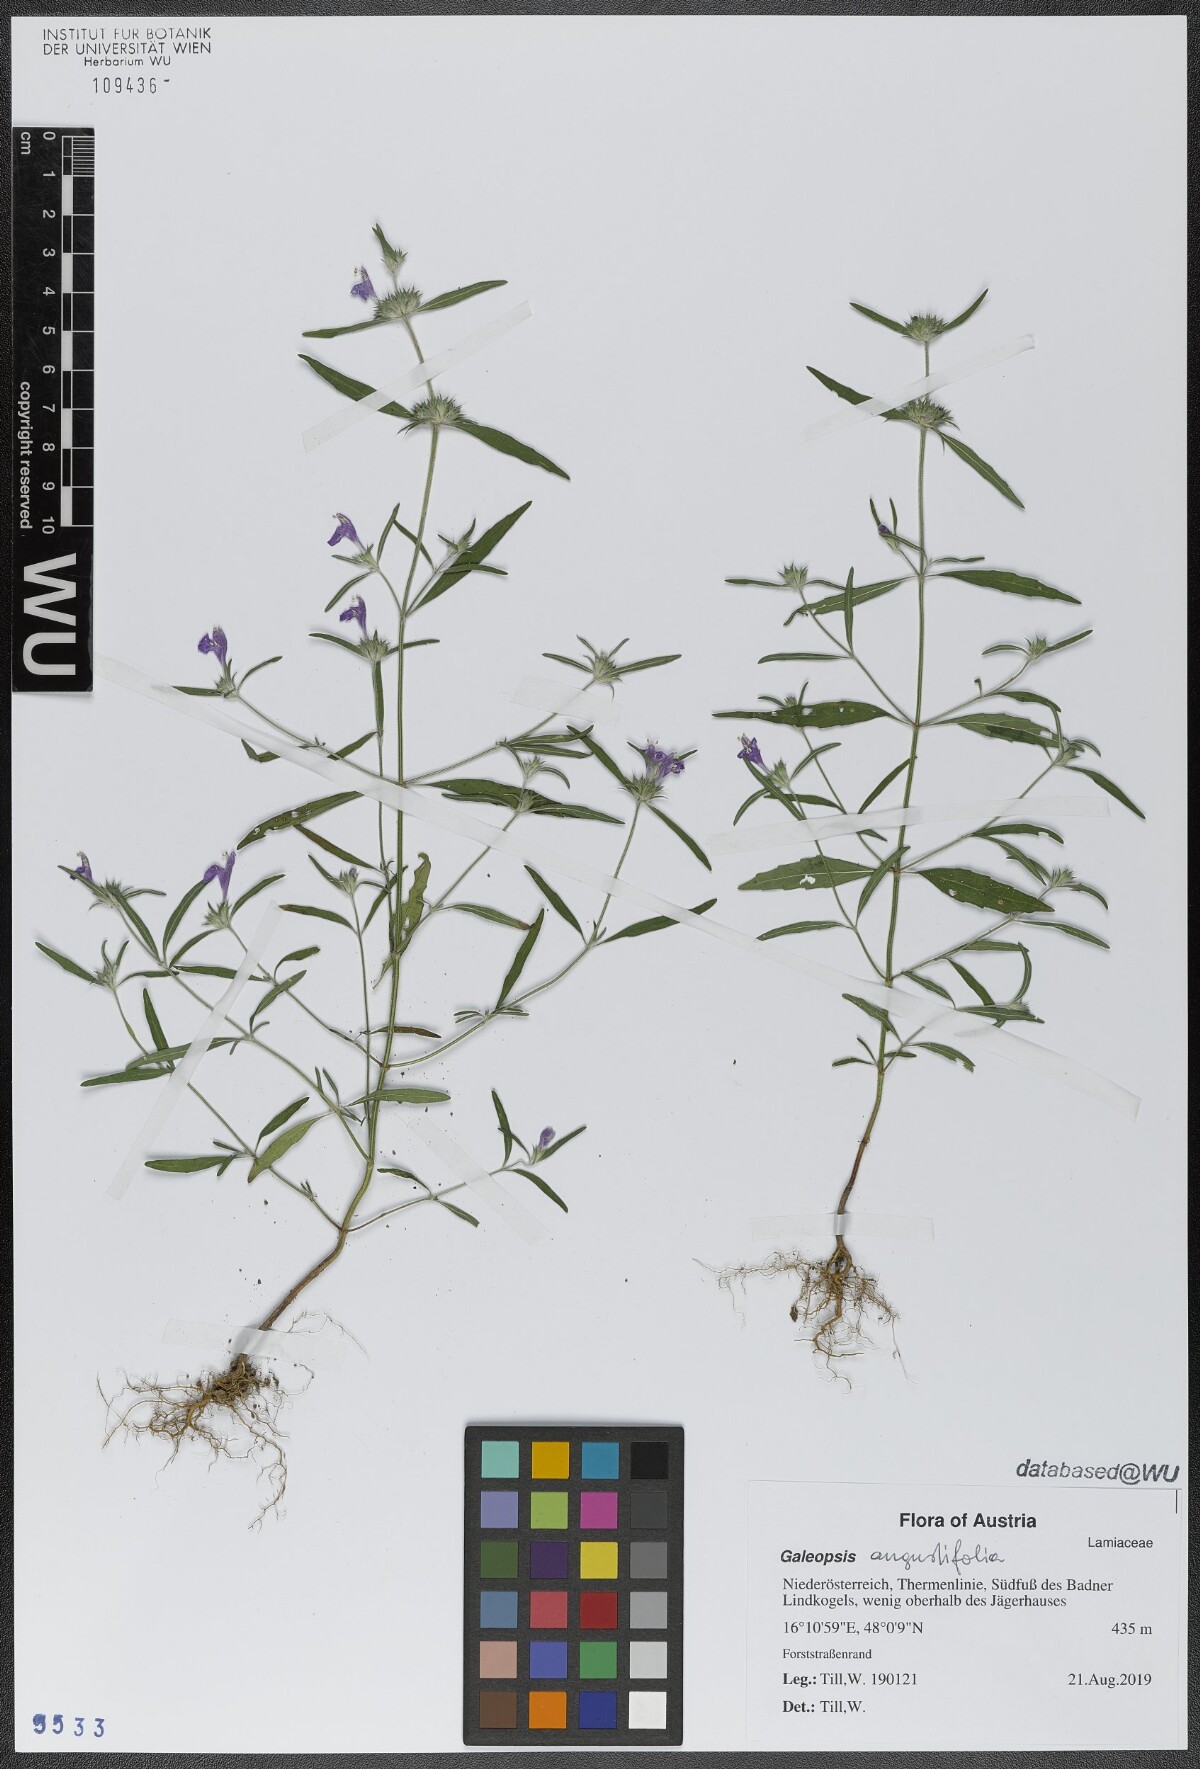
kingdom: Plantae
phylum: Tracheophyta
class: Magnoliopsida
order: Lamiales
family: Lamiaceae
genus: Galeopsis
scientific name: Galeopsis angustifolia
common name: Red hemp-nettle
